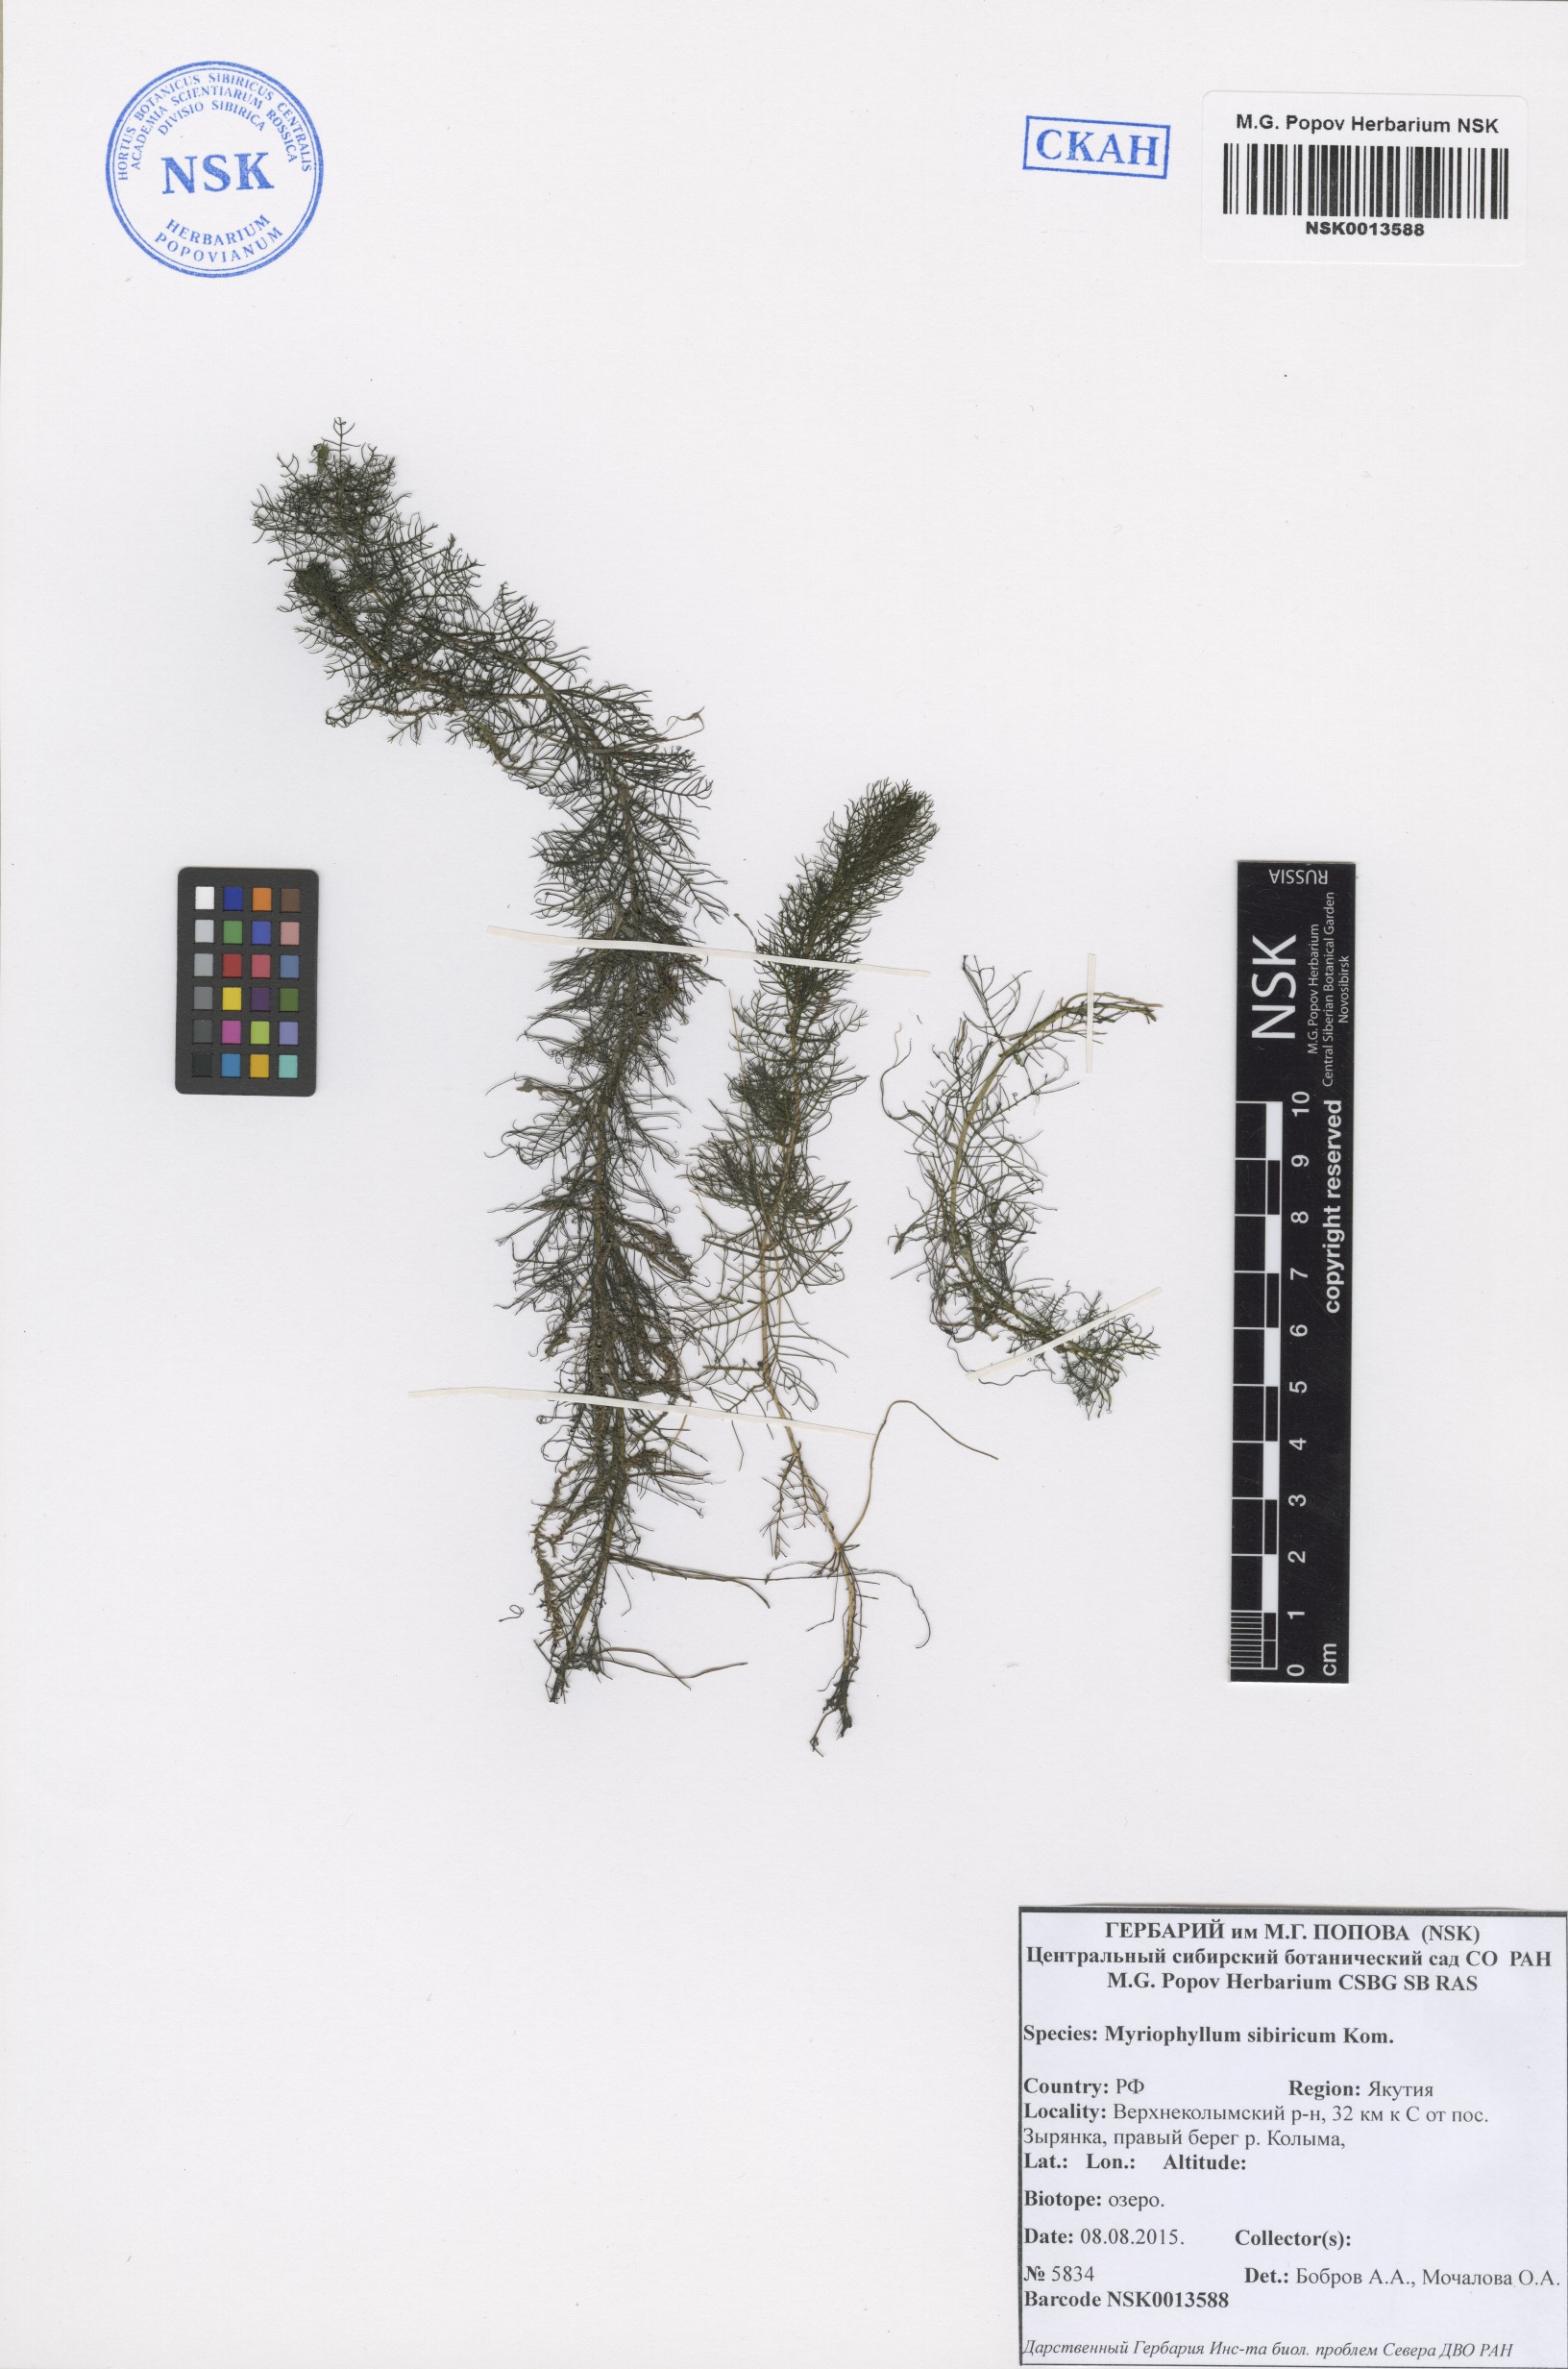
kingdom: Plantae
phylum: Tracheophyta
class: Magnoliopsida
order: Saxifragales
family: Haloragaceae
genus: Myriophyllum
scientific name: Myriophyllum sibiricum
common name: Siberian water-milfoil
